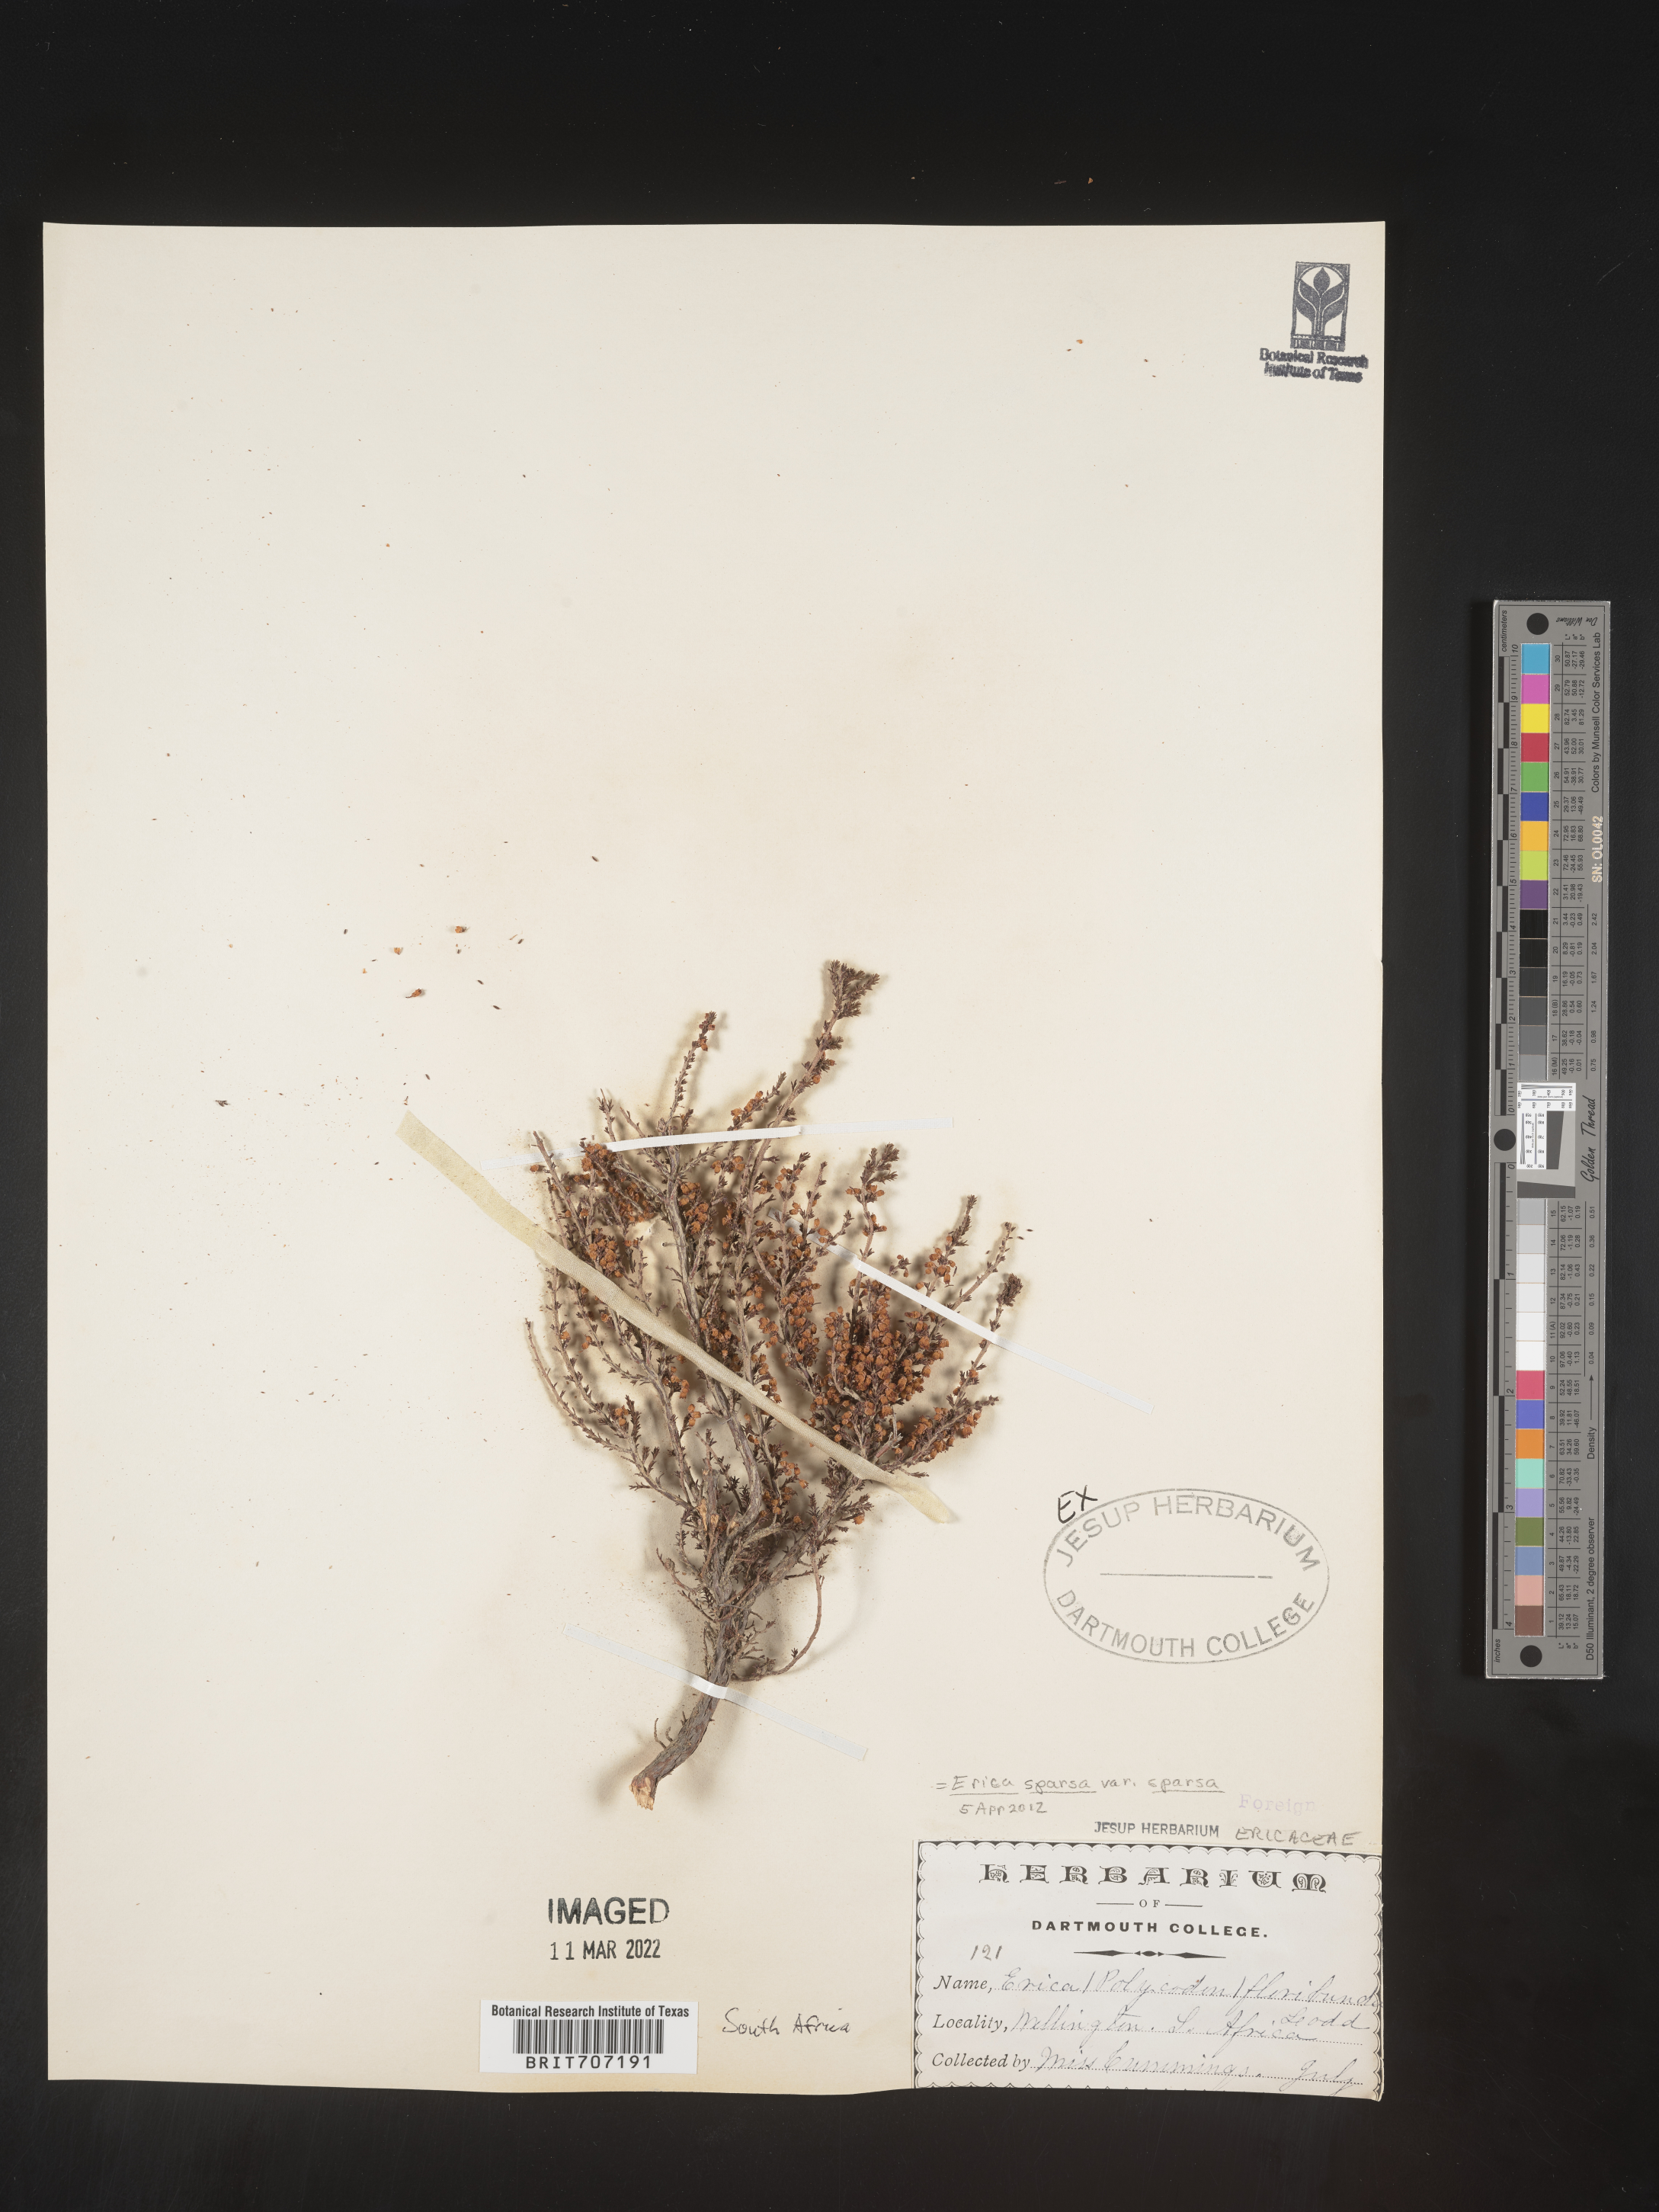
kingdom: Plantae
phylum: Tracheophyta
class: Magnoliopsida
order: Ericales
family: Ericaceae
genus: Erica
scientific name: Erica
